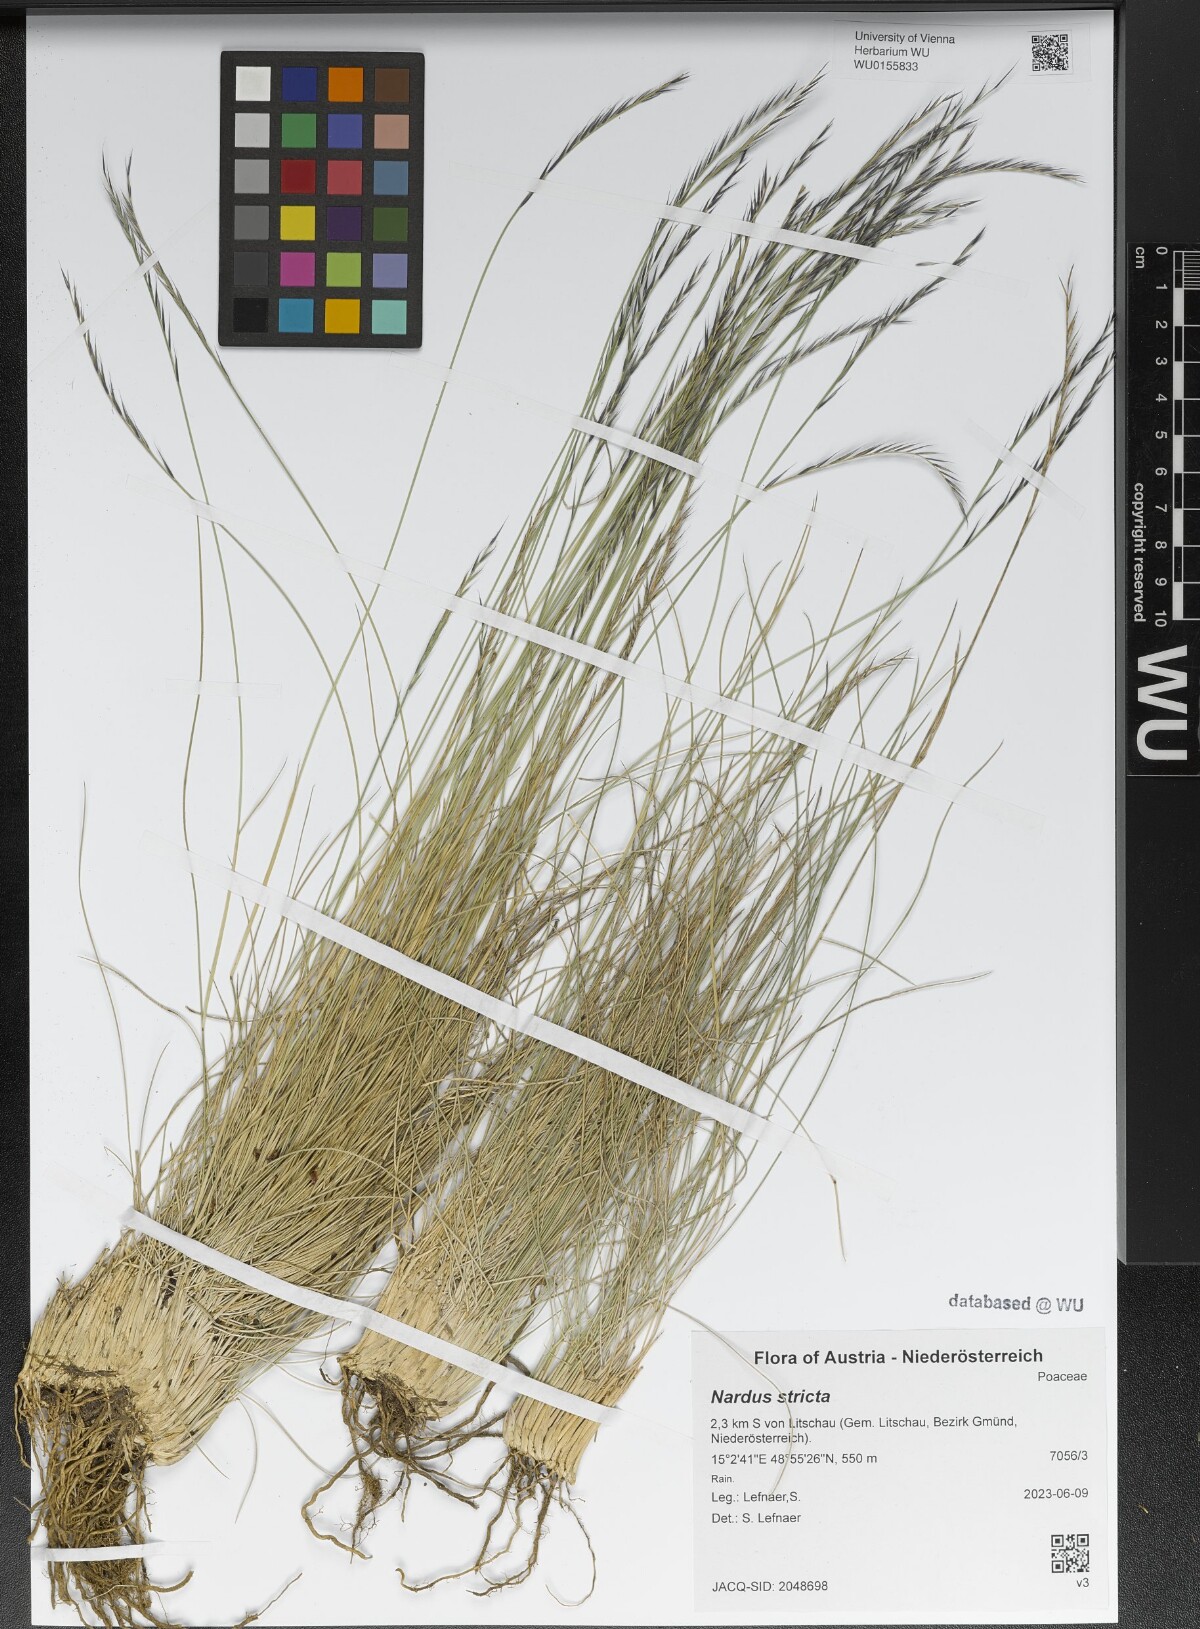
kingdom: Plantae
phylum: Tracheophyta
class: Liliopsida
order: Poales
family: Poaceae
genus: Nardus
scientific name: Nardus stricta
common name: Mat-grass
